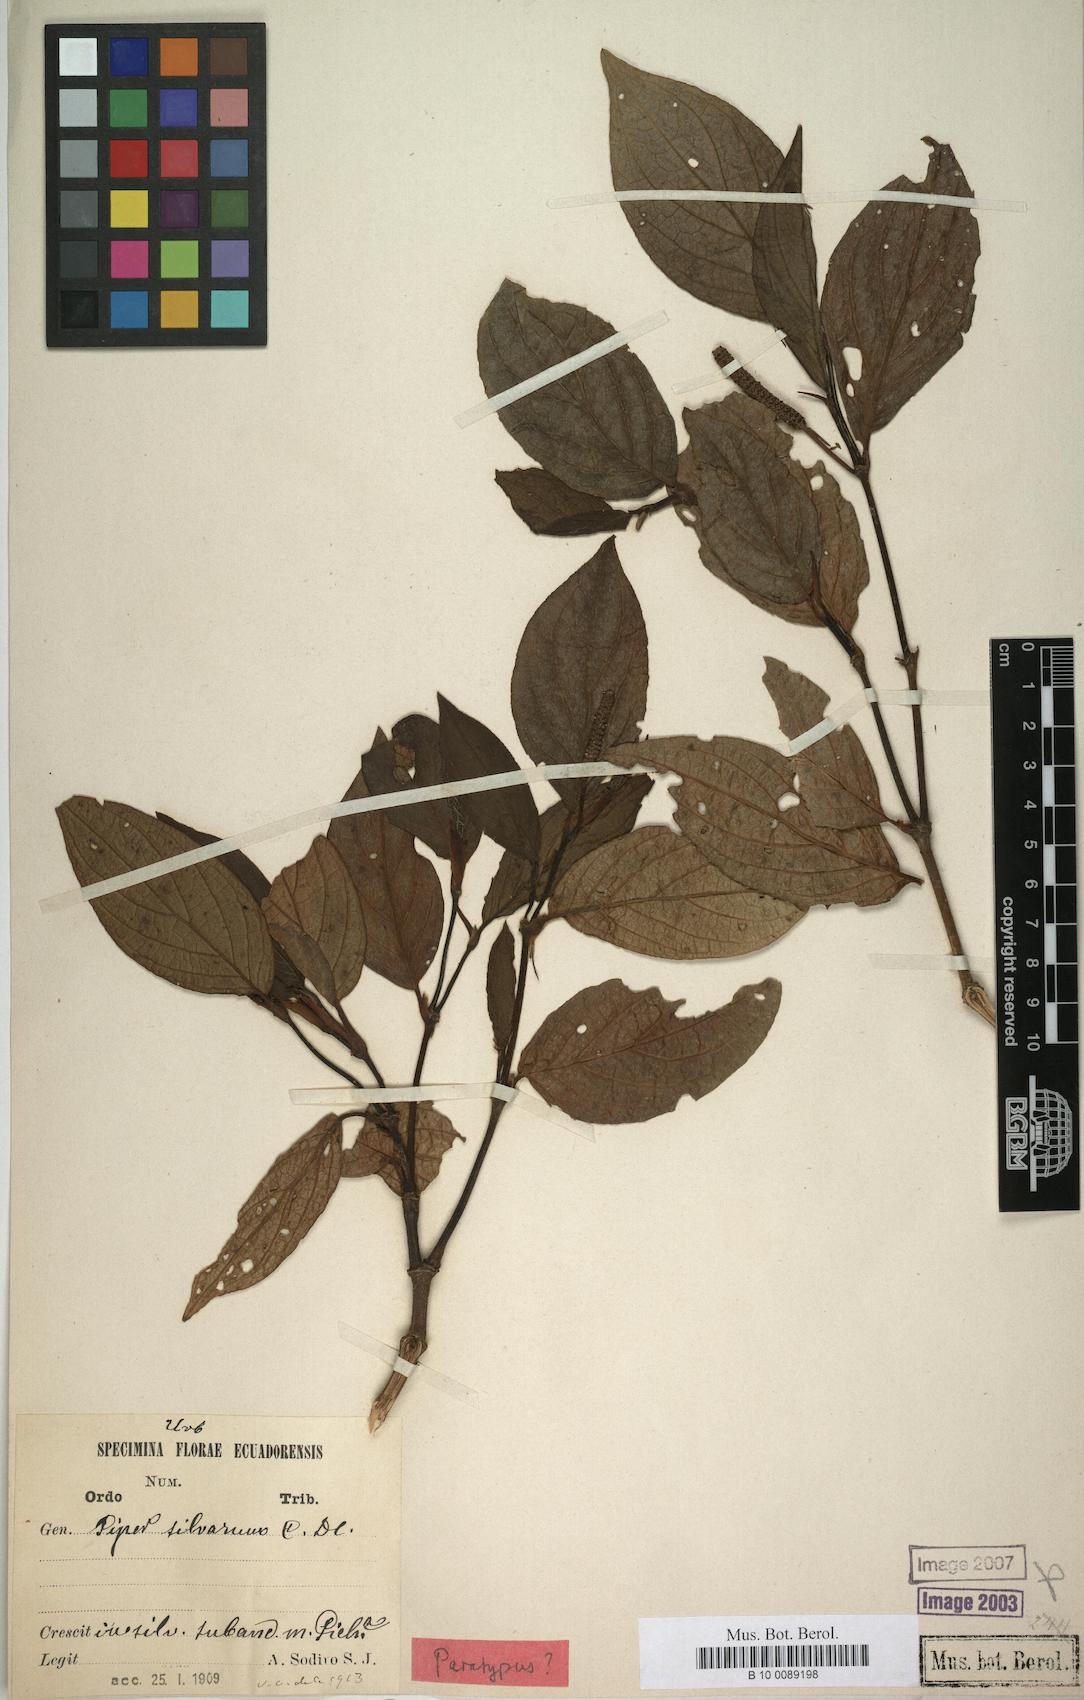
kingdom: Plantae
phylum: Tracheophyta
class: Magnoliopsida
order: Piperales
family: Piperaceae
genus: Piper
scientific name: Piper silvarum
